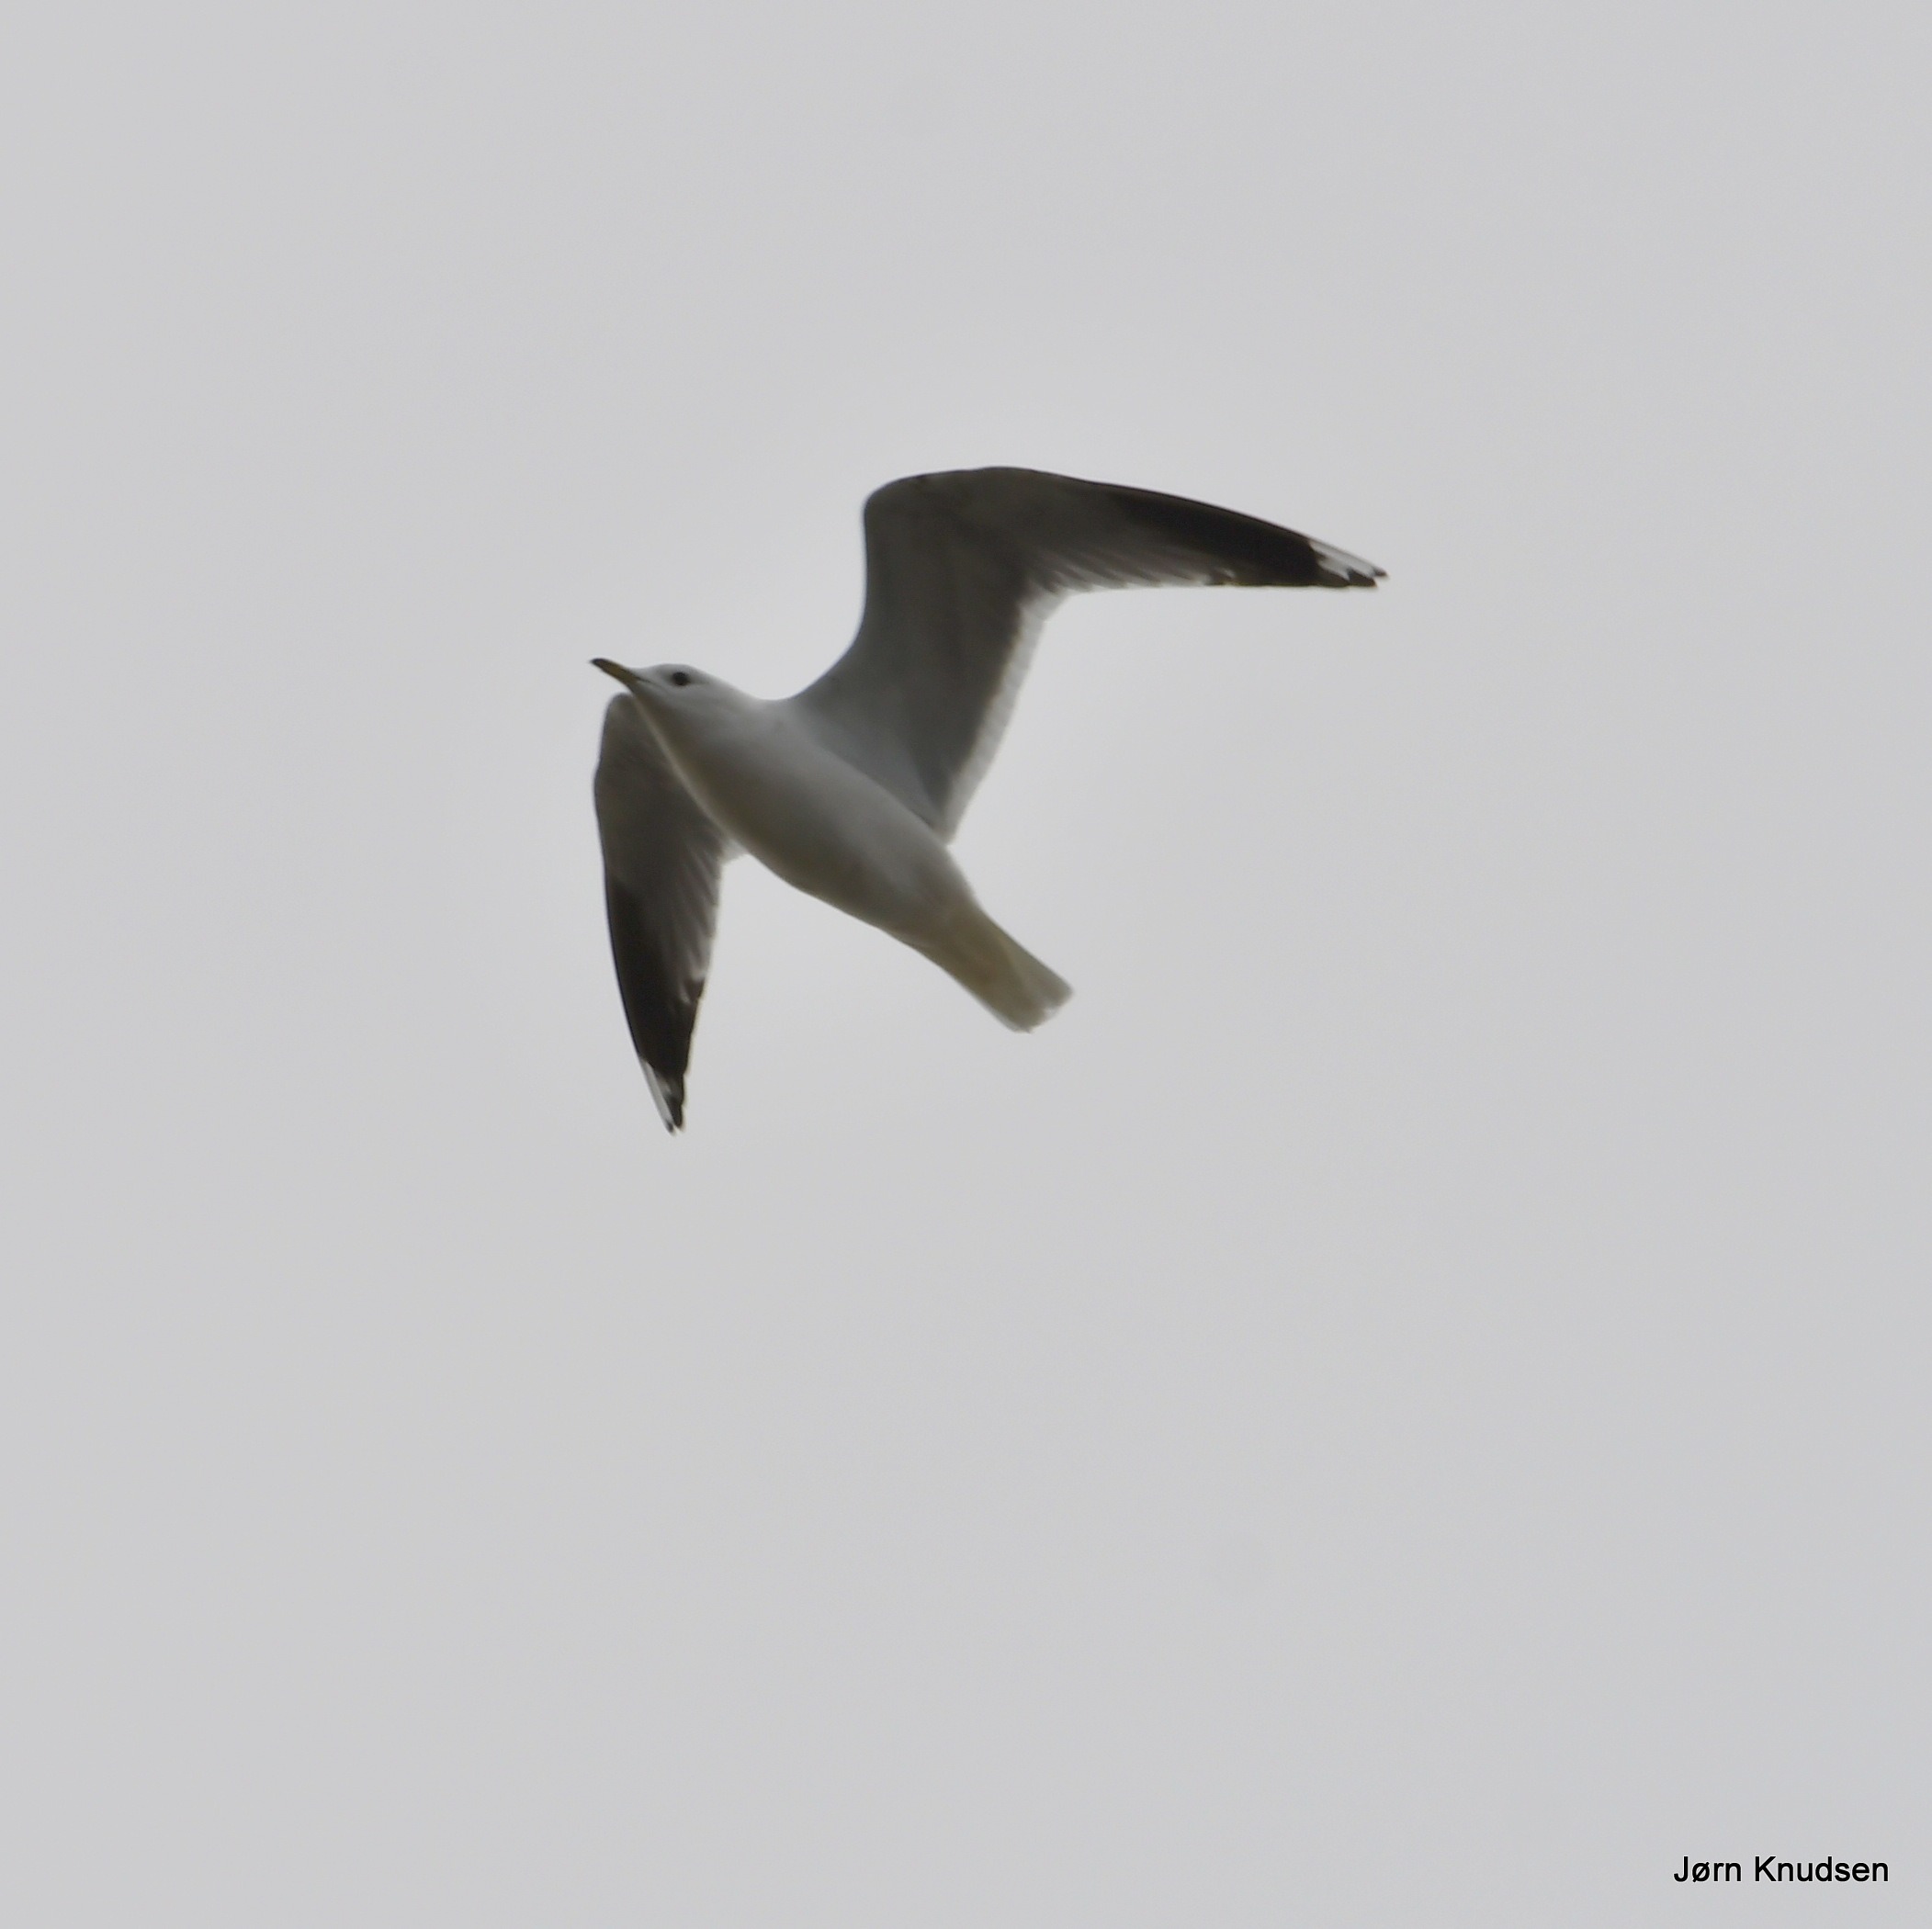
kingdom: Animalia
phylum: Chordata
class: Aves
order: Charadriiformes
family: Laridae
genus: Larus
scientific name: Larus canus
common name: Stormmåge
